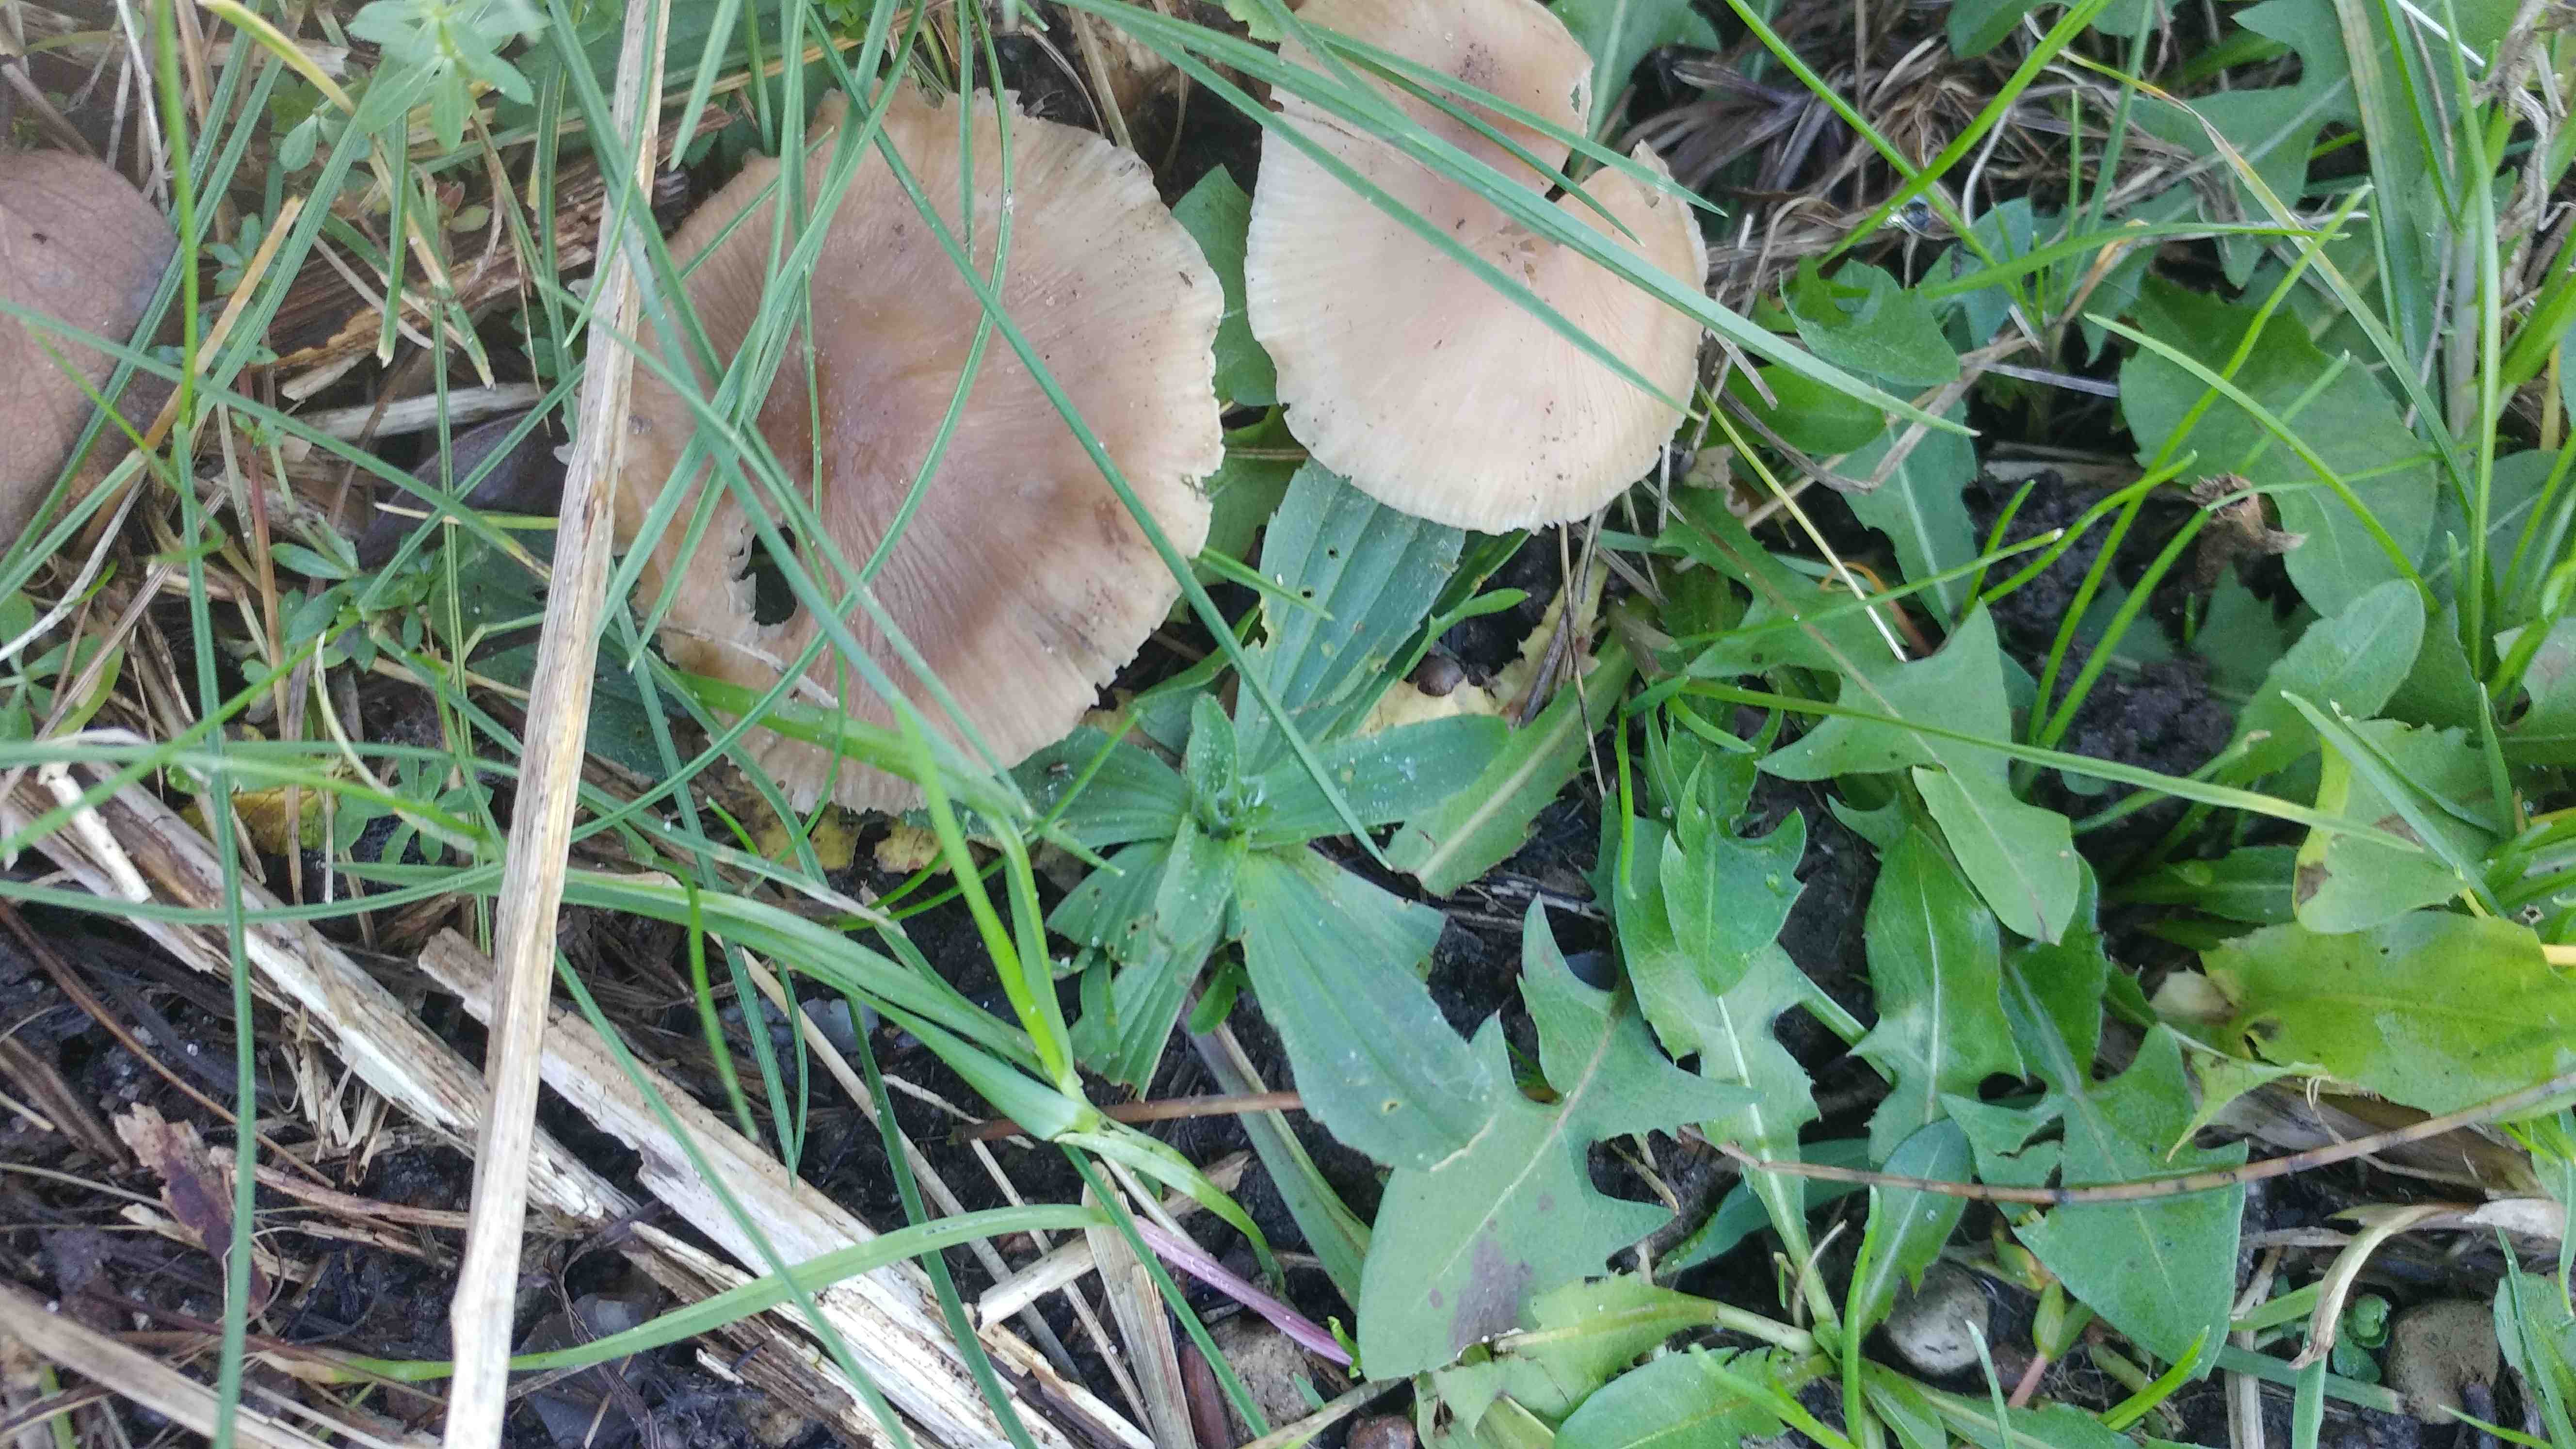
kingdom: Fungi
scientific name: Fungi
